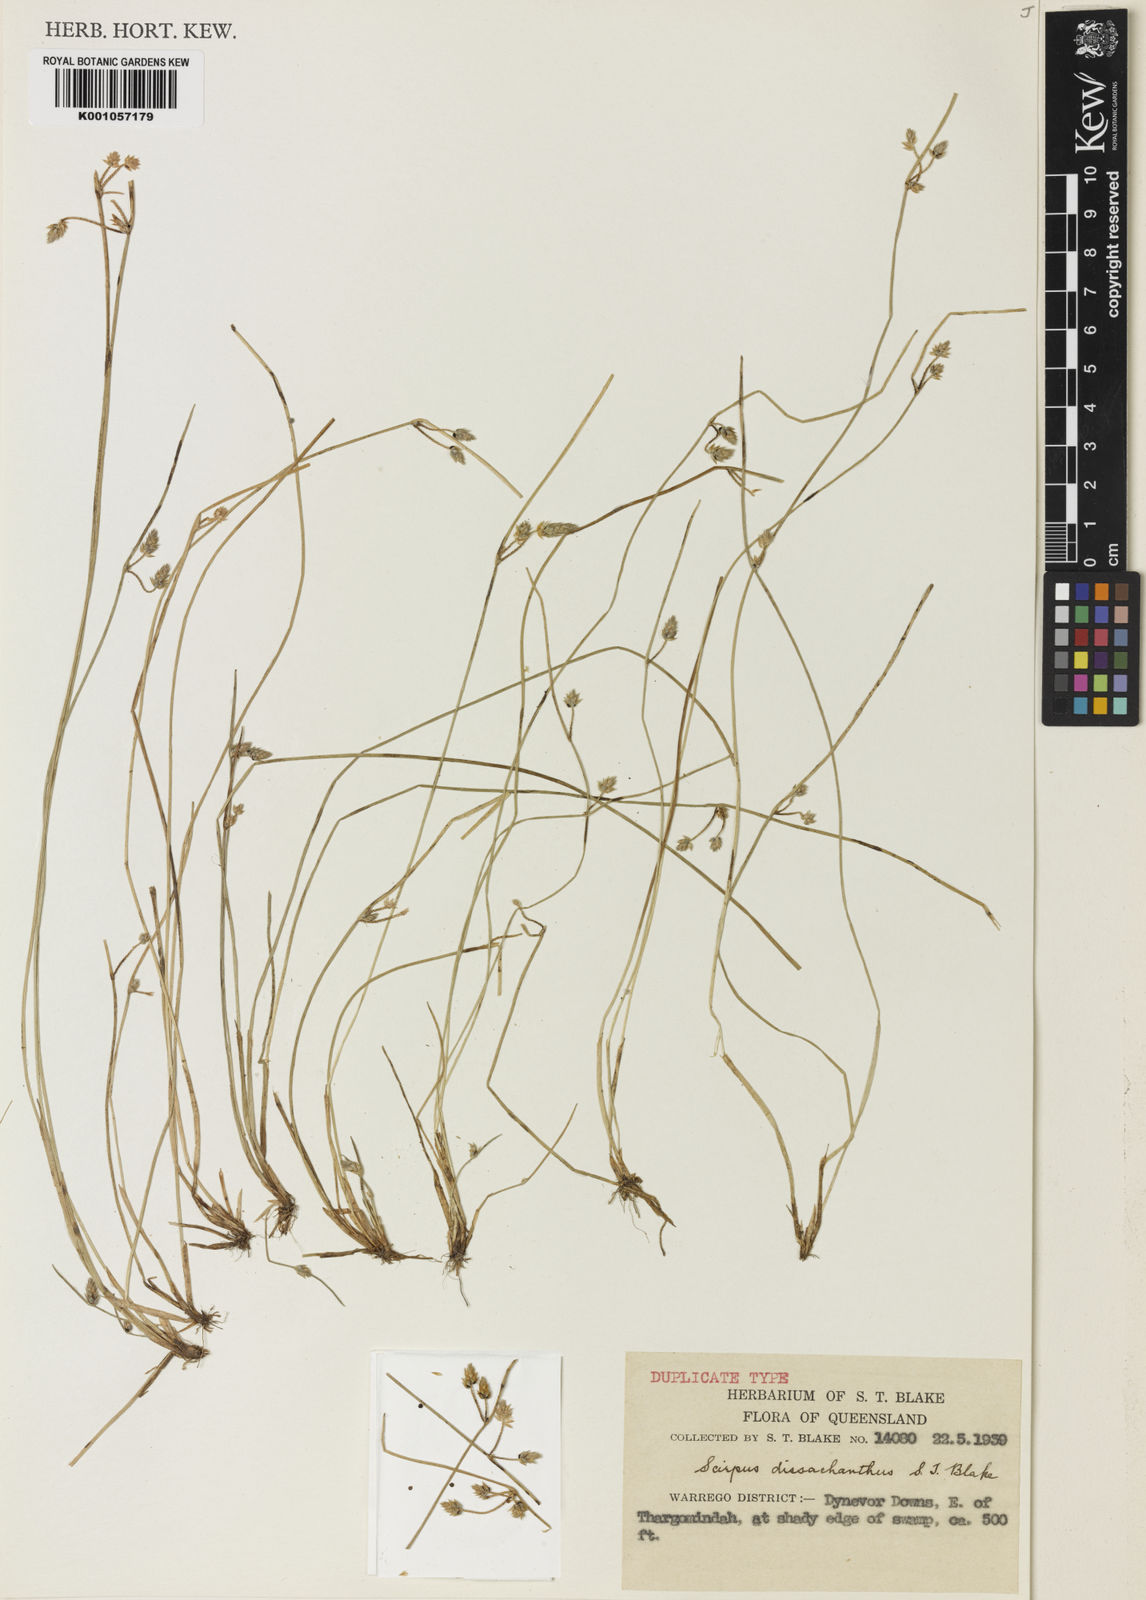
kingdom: Plantae
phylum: Tracheophyta
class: Liliopsida
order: Poales
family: Cyperaceae
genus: Schoenoplectiella
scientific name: Schoenoplectiella dissachantha
